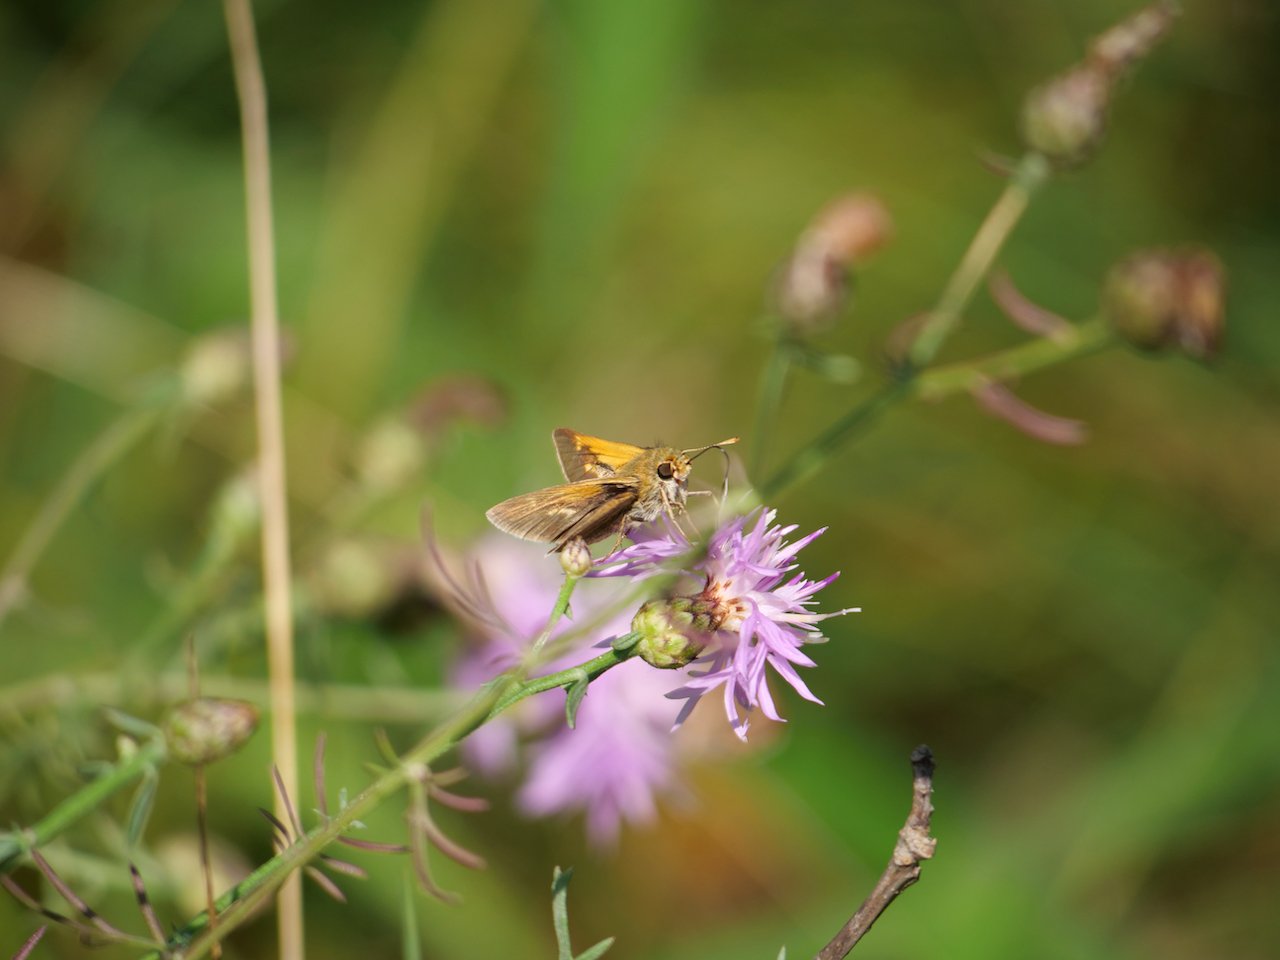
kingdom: Animalia
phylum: Arthropoda
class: Insecta
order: Lepidoptera
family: Hesperiidae
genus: Polites
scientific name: Polites themistocles
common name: Tawny-edged Skipper
